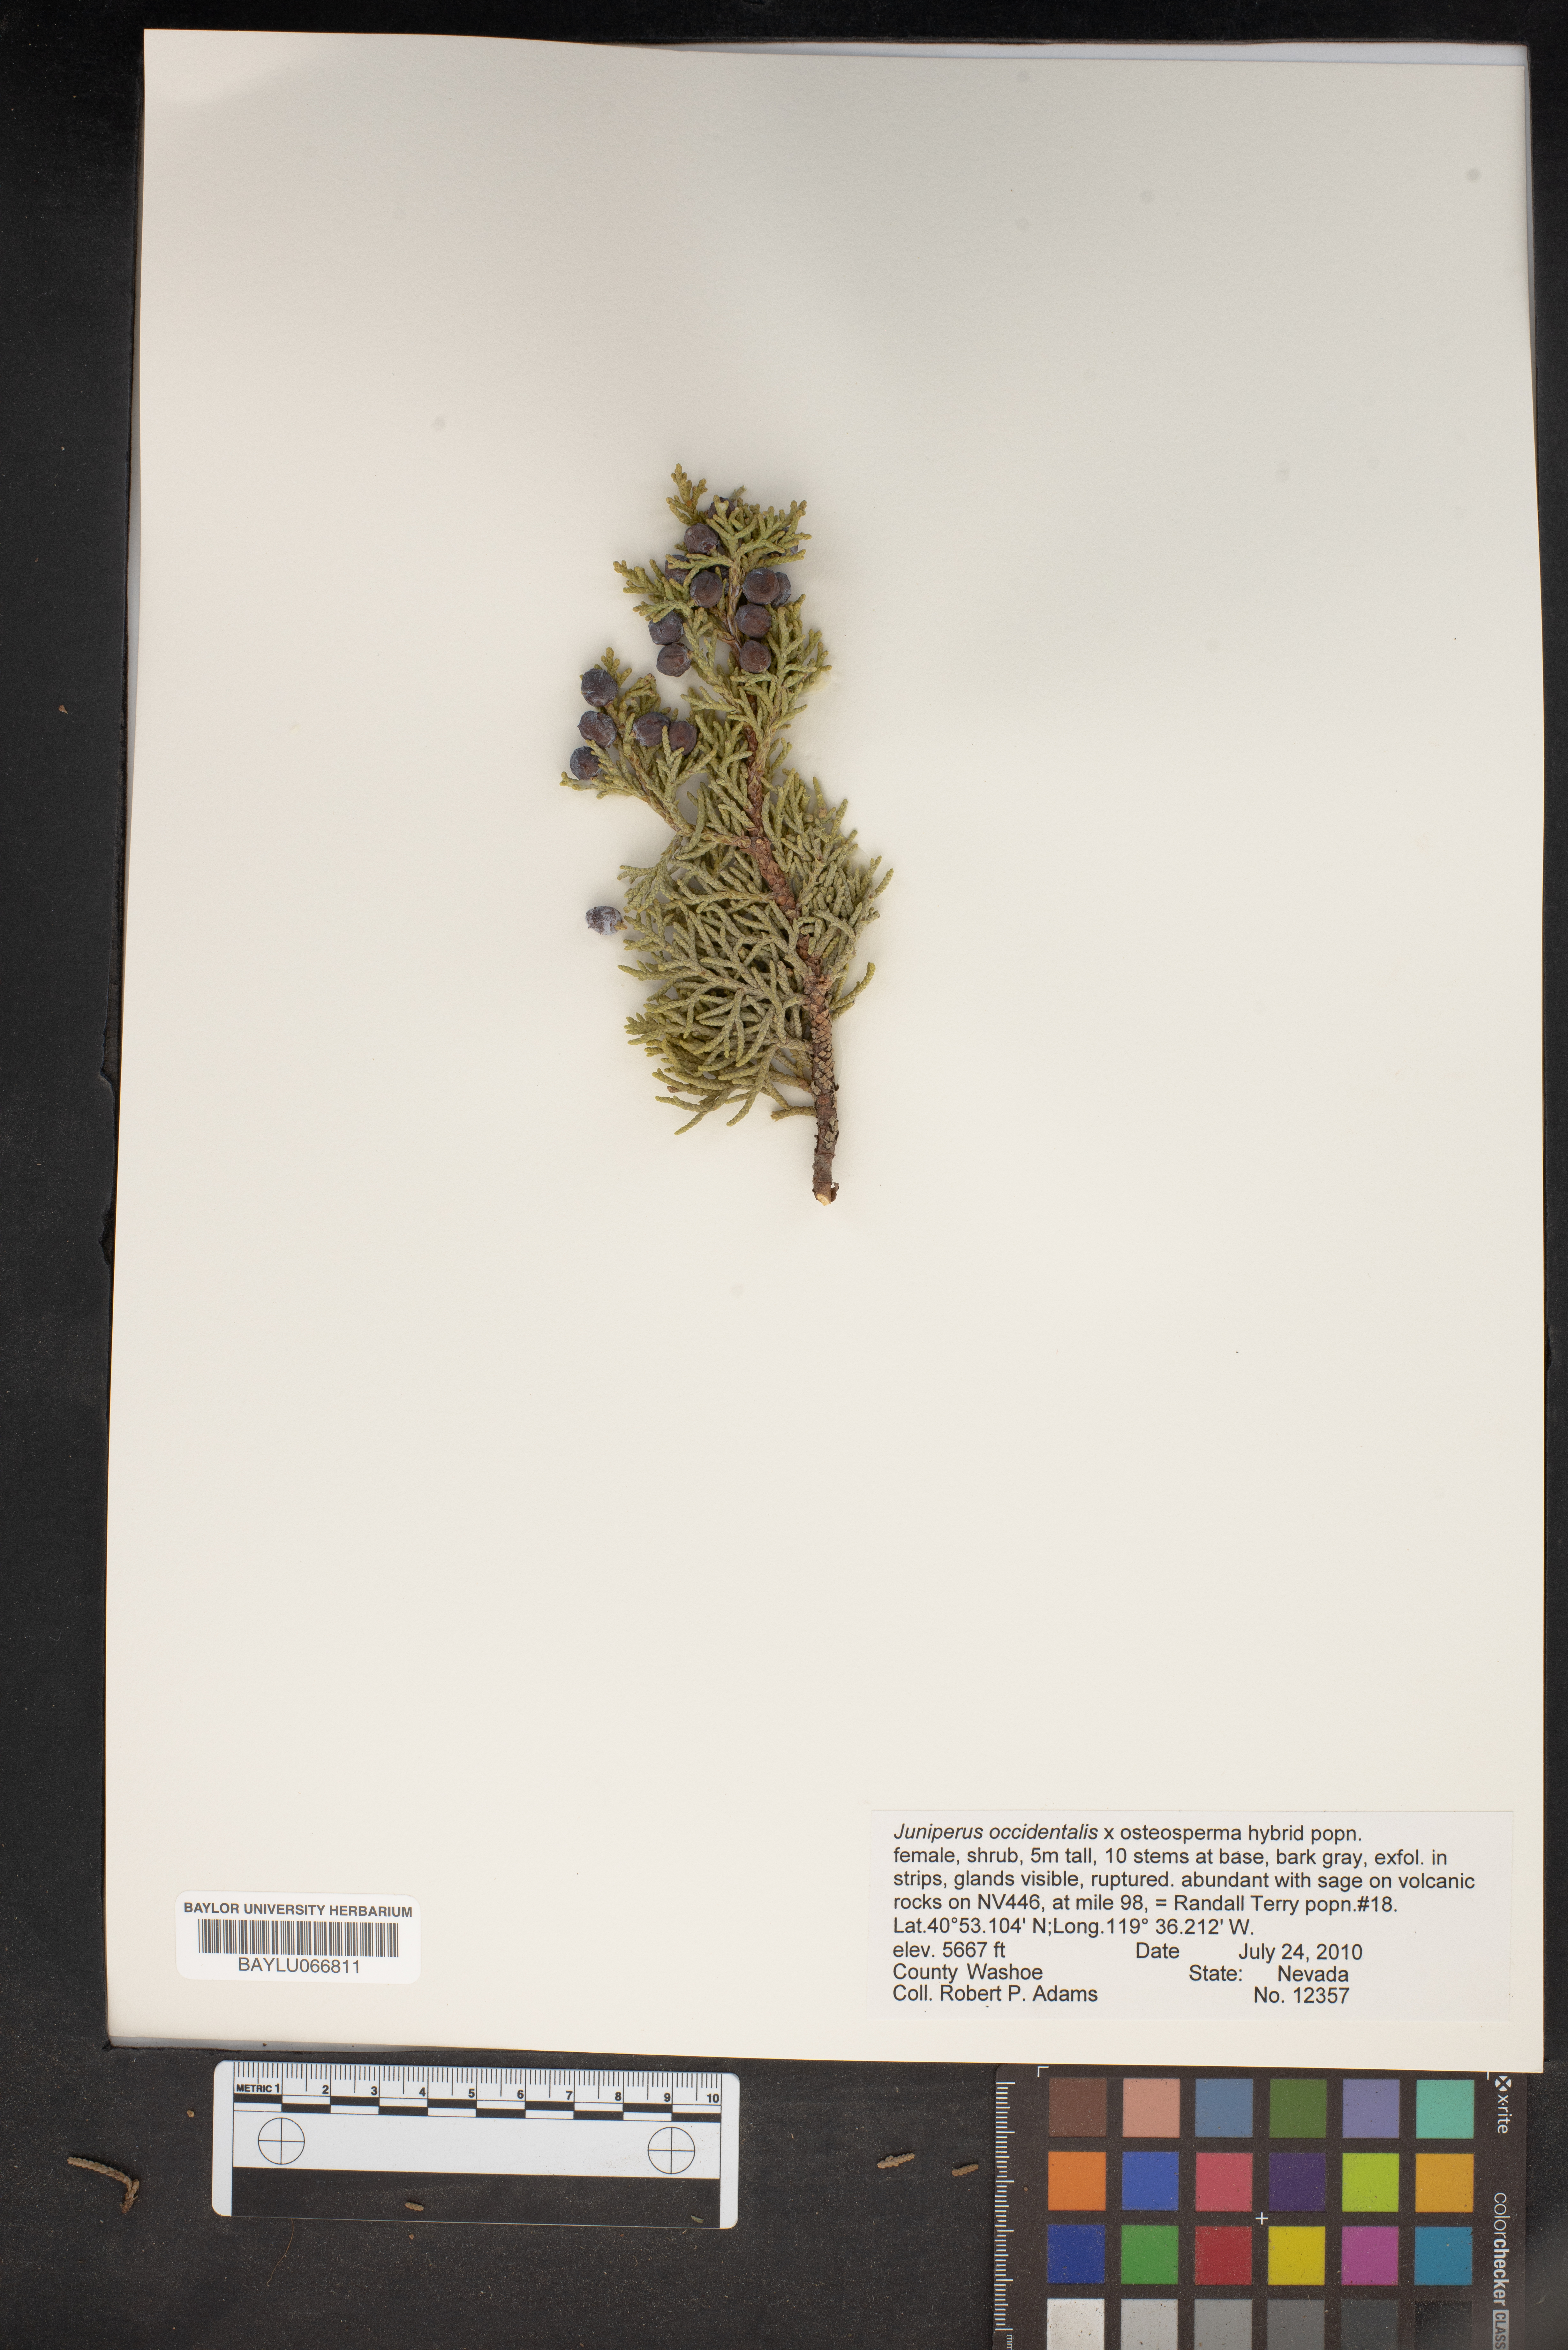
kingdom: Plantae
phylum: Tracheophyta
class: Pinopsida
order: Pinales
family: Cupressaceae
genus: Juniperus
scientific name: Juniperus occidentalis
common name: Western juniper
